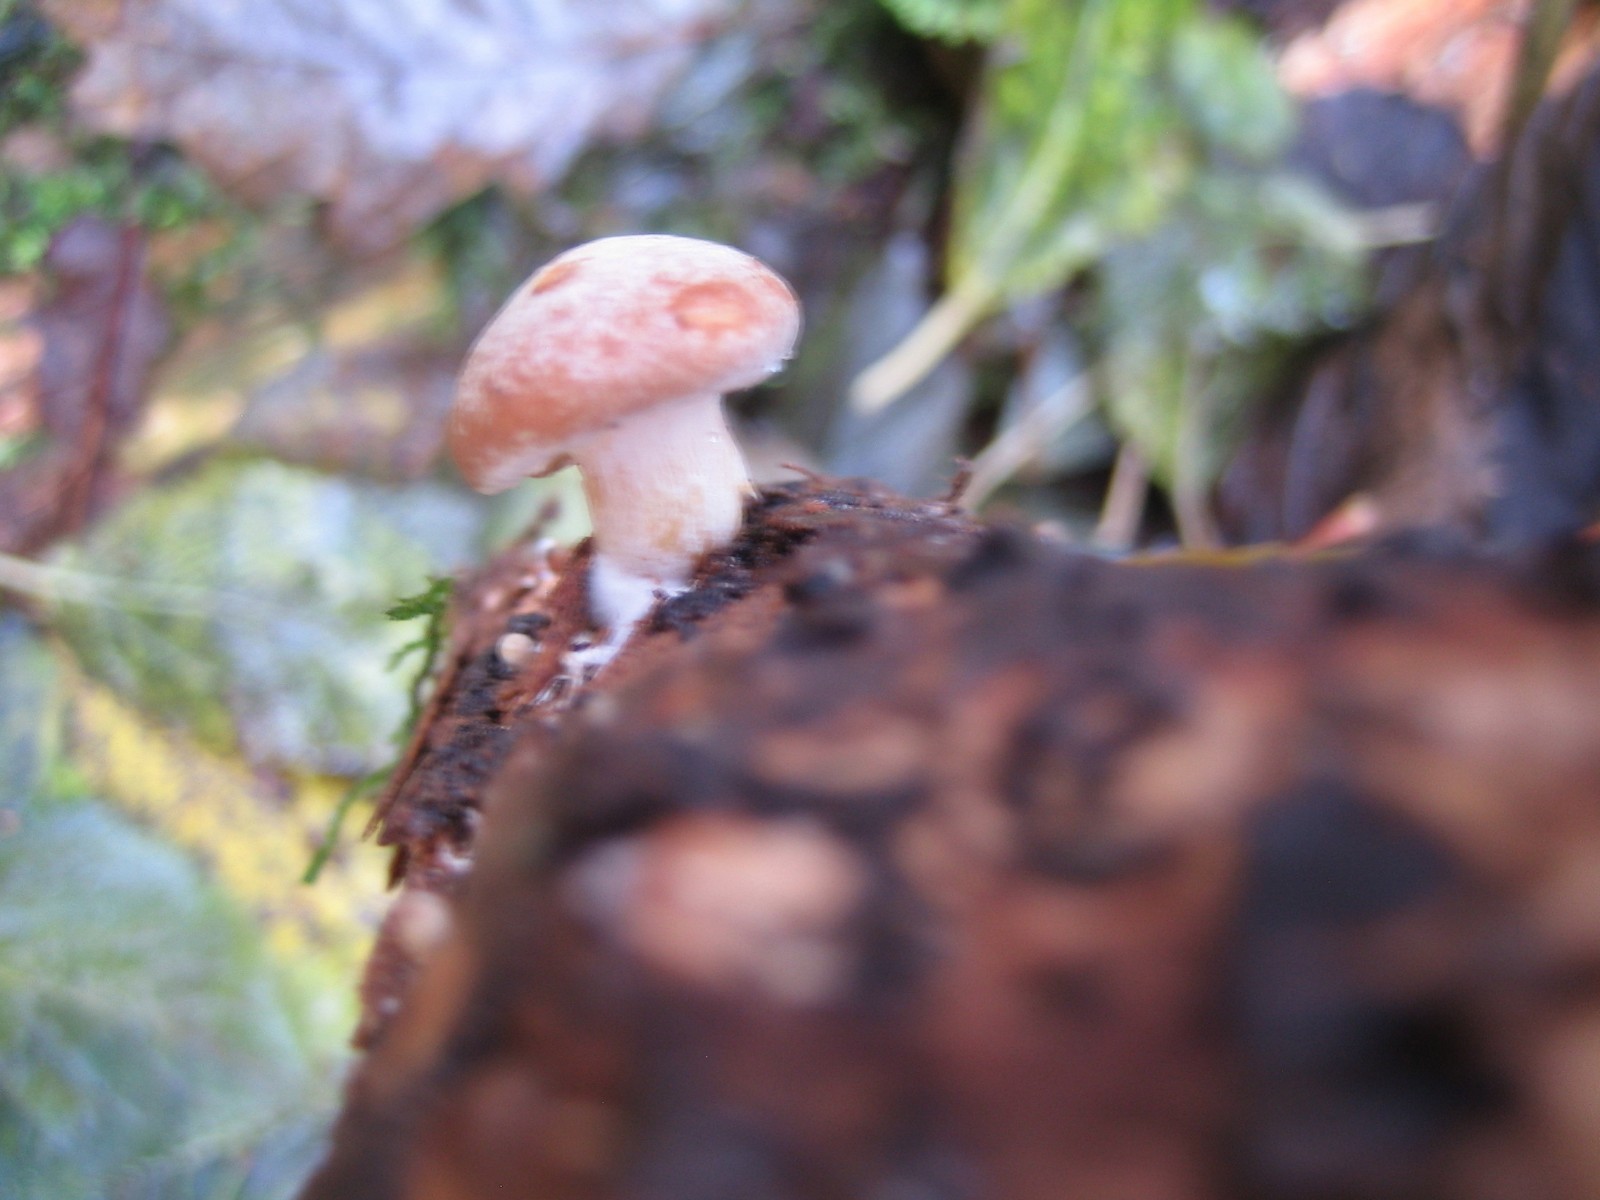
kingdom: Fungi
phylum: Basidiomycota
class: Agaricomycetes
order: Agaricales
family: Hymenogastraceae
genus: Gymnopilus
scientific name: Gymnopilus penetrans
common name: plettet flammehat
